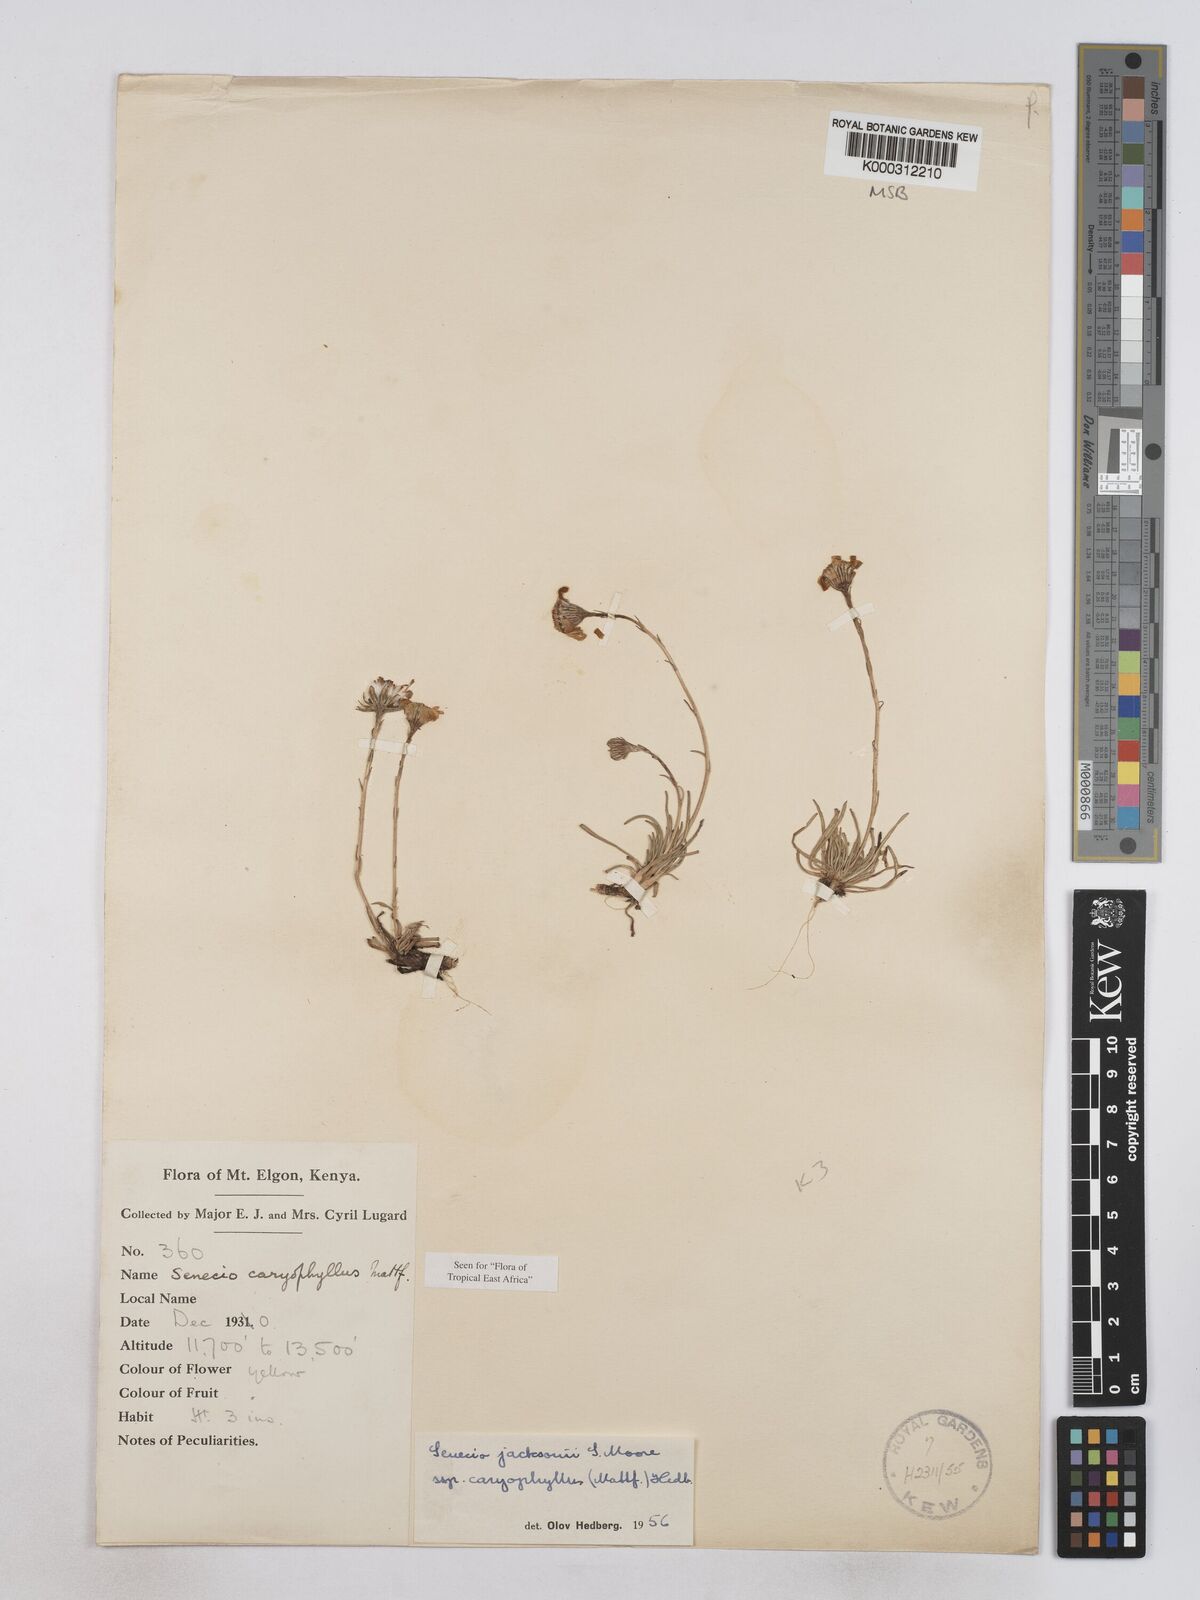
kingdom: Plantae
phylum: Tracheophyta
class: Magnoliopsida
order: Asterales
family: Asteraceae
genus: Senecio
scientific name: Senecio jacksonii
